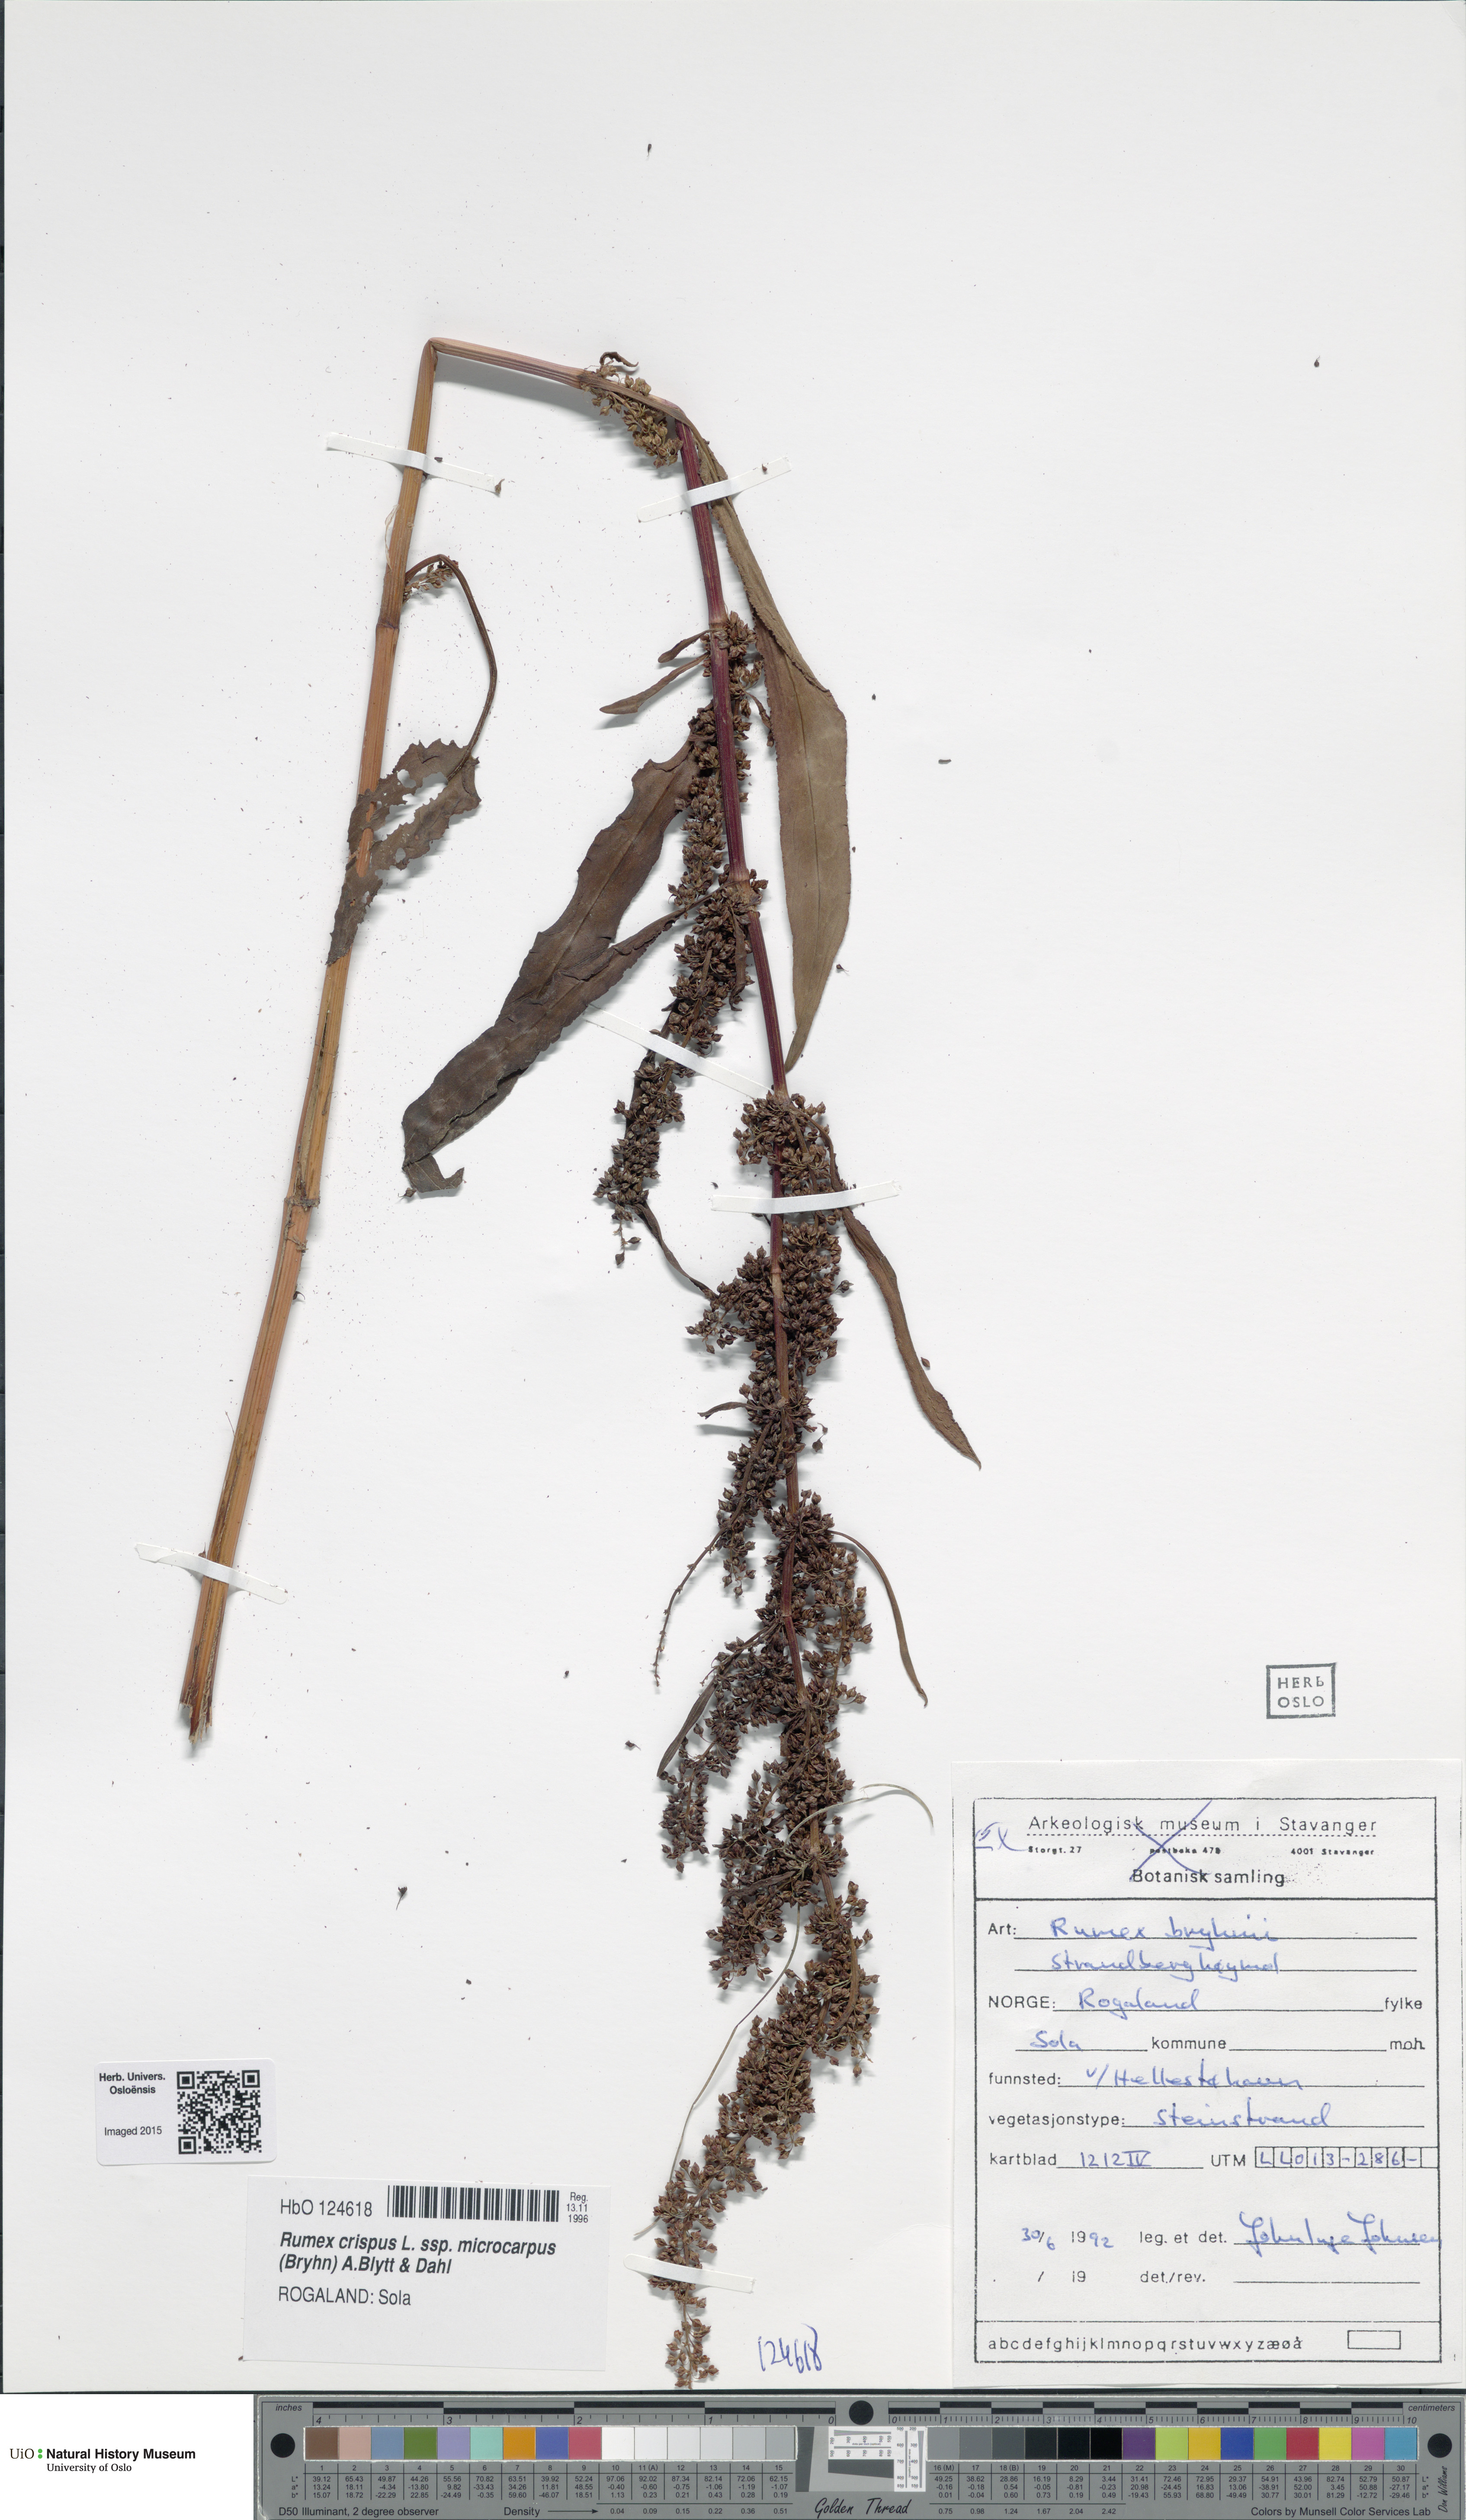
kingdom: Plantae
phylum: Tracheophyta
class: Magnoliopsida
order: Caryophyllales
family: Polygonaceae
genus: Rumex
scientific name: Rumex bryhnii
